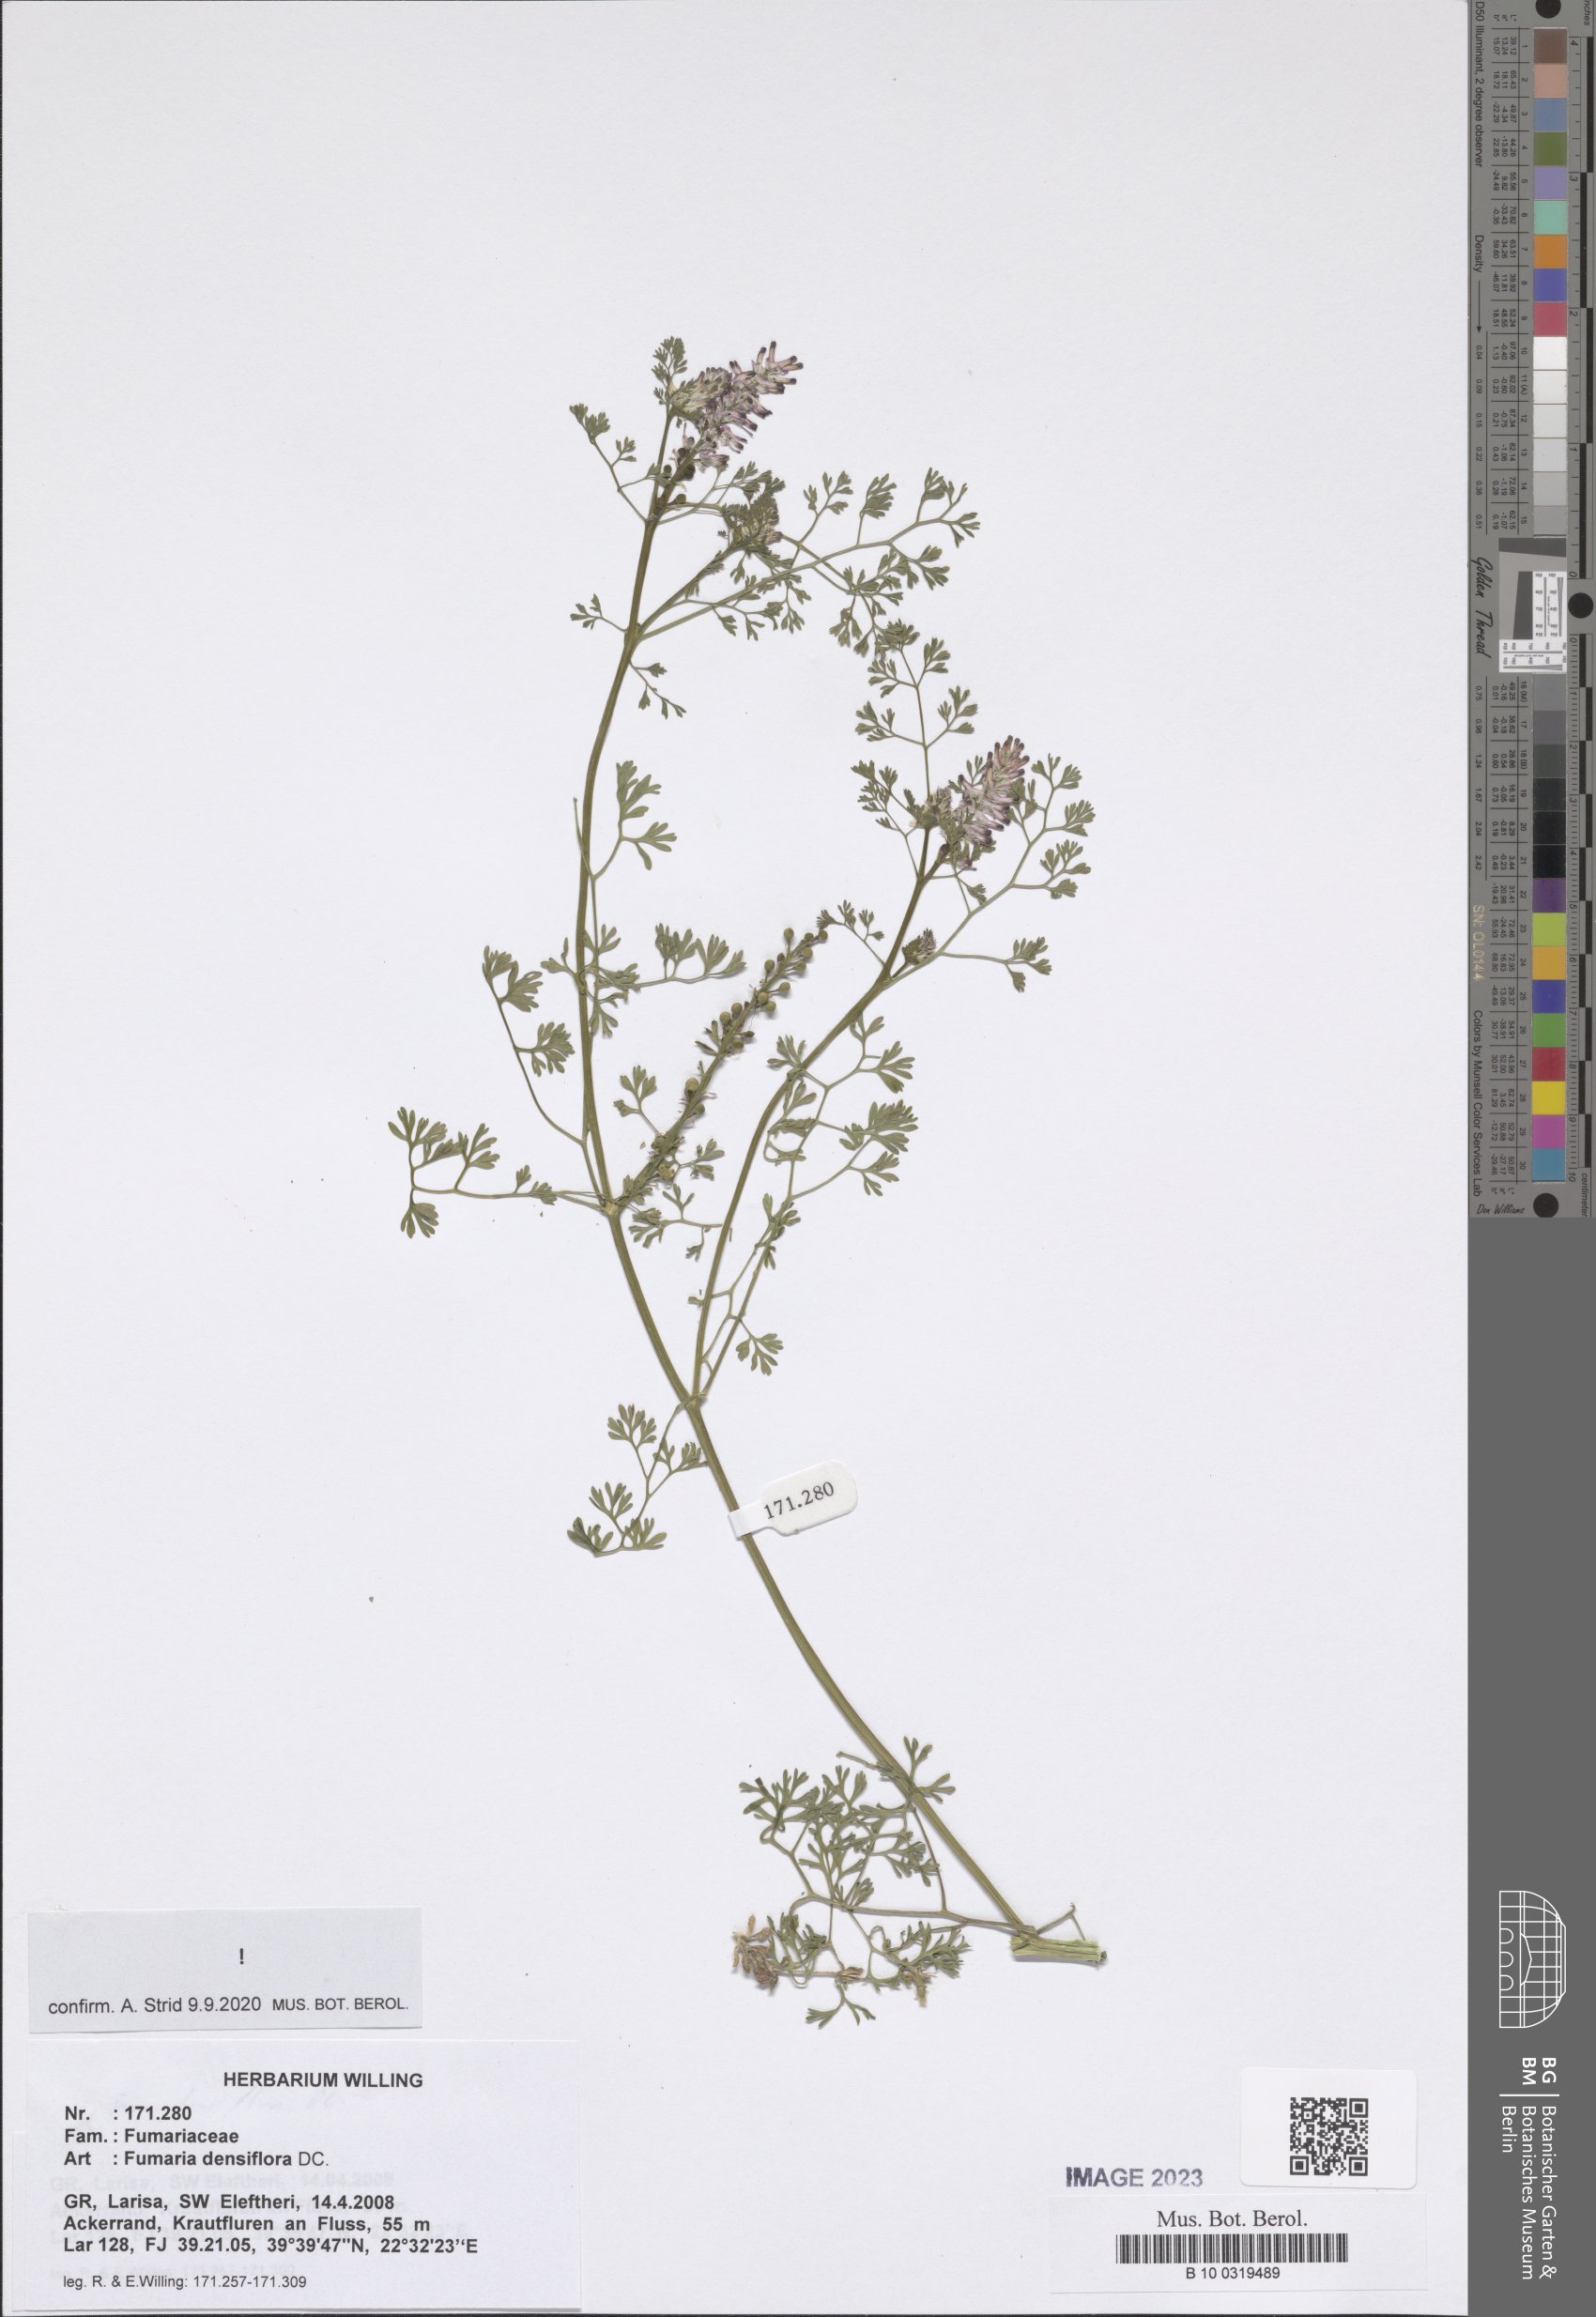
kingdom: Plantae
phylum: Tracheophyta
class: Magnoliopsida
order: Ranunculales
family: Papaveraceae
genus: Fumaria
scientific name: Fumaria densiflora
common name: Dense-flowered fumitory
